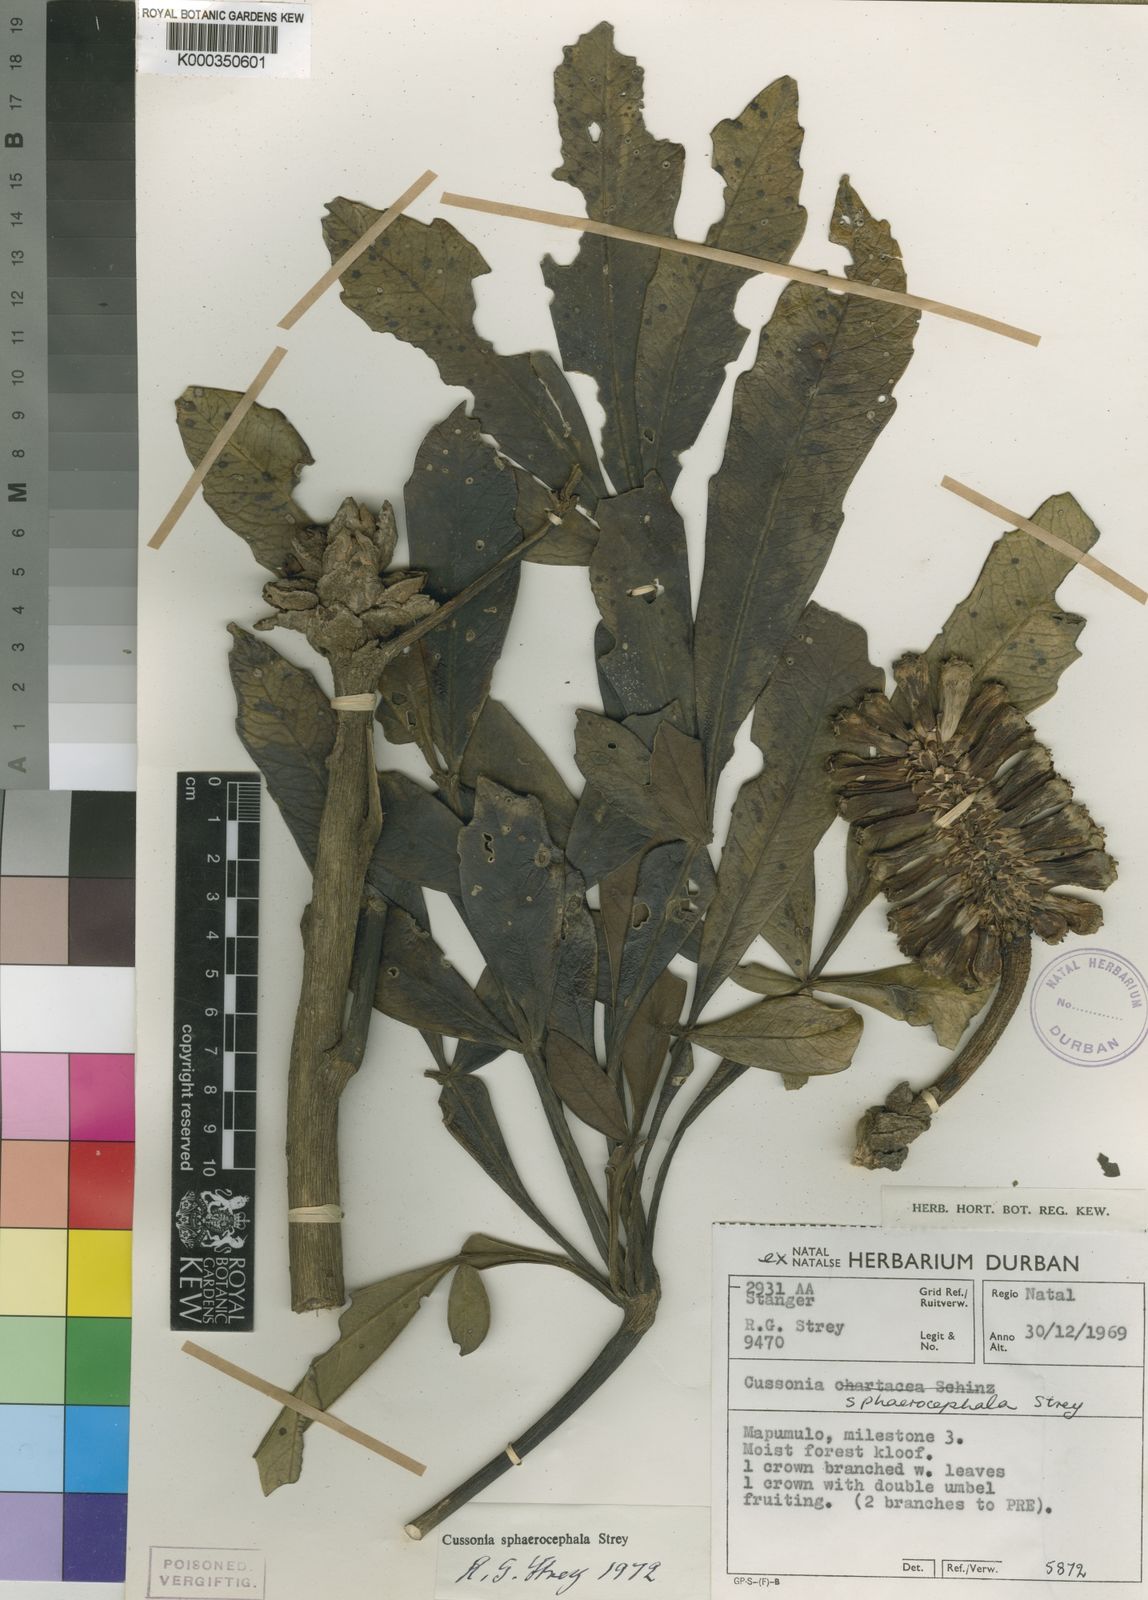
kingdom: Plantae
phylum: Tracheophyta
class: Magnoliopsida
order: Apiales
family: Araliaceae
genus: Cussonia
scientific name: Cussonia sphaerocephala
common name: Forest cabbage-tree
